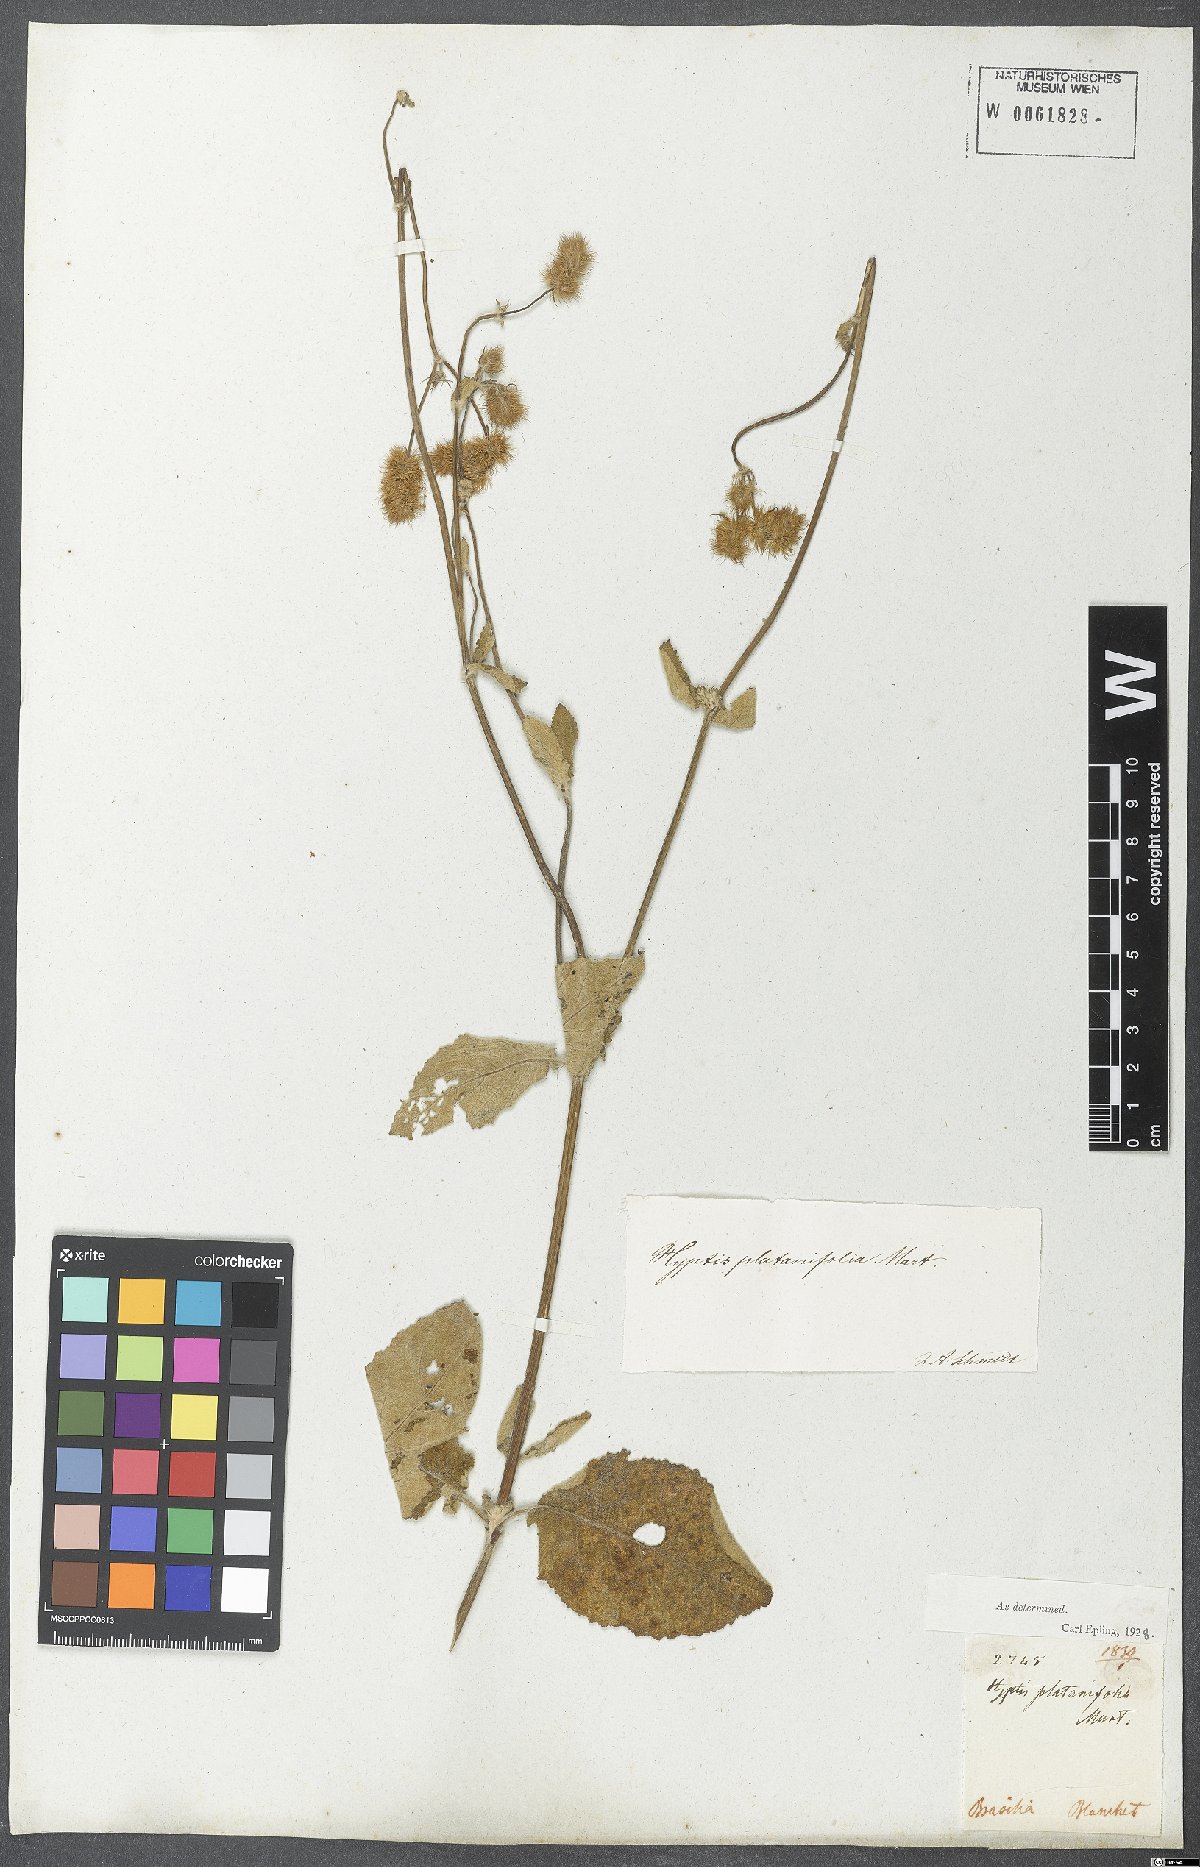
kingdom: Plantae
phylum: Tracheophyta
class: Magnoliopsida
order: Lamiales
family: Lamiaceae
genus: Gymneia
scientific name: Gymneia platanifolia
